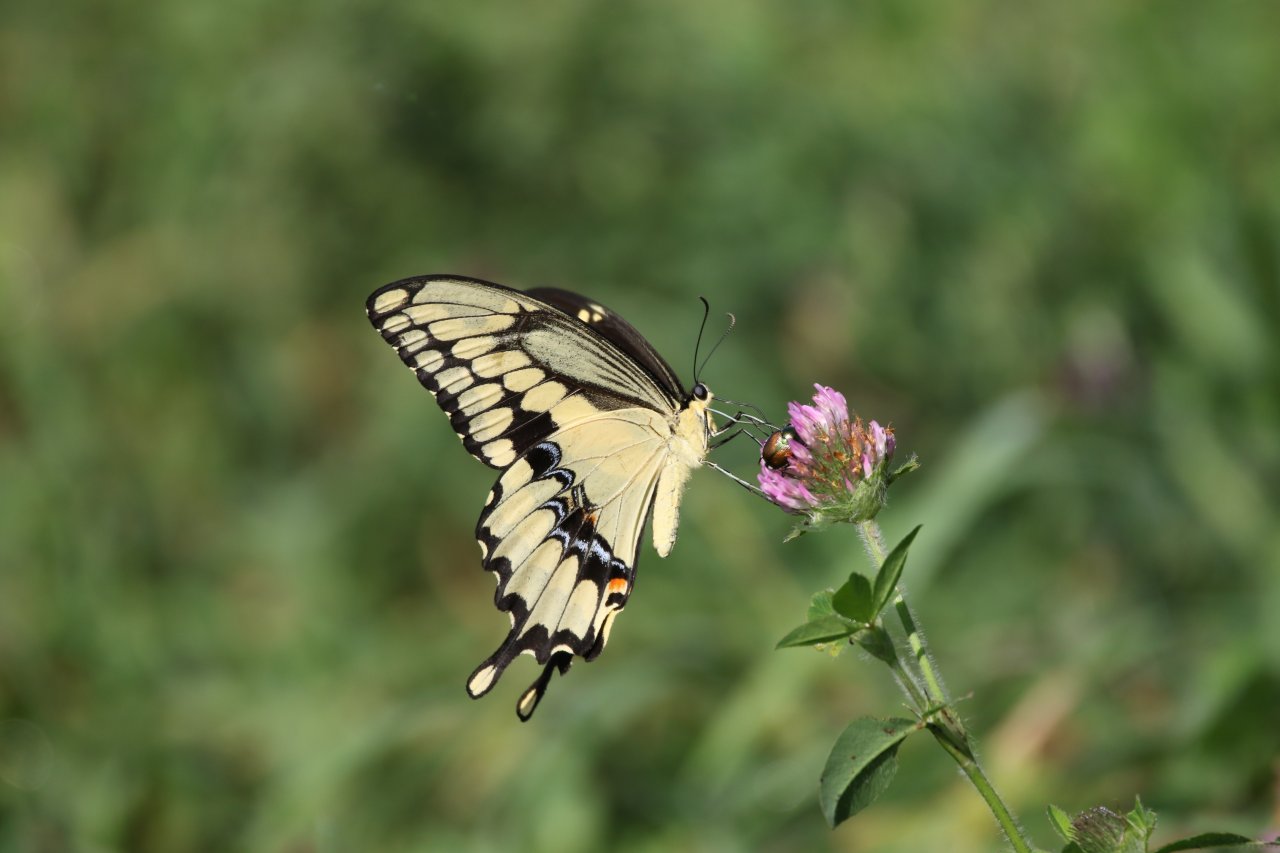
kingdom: Animalia
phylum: Arthropoda
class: Insecta
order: Lepidoptera
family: Papilionidae
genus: Papilio
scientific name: Papilio cresphontes
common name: Eastern Giant Swallowtail
